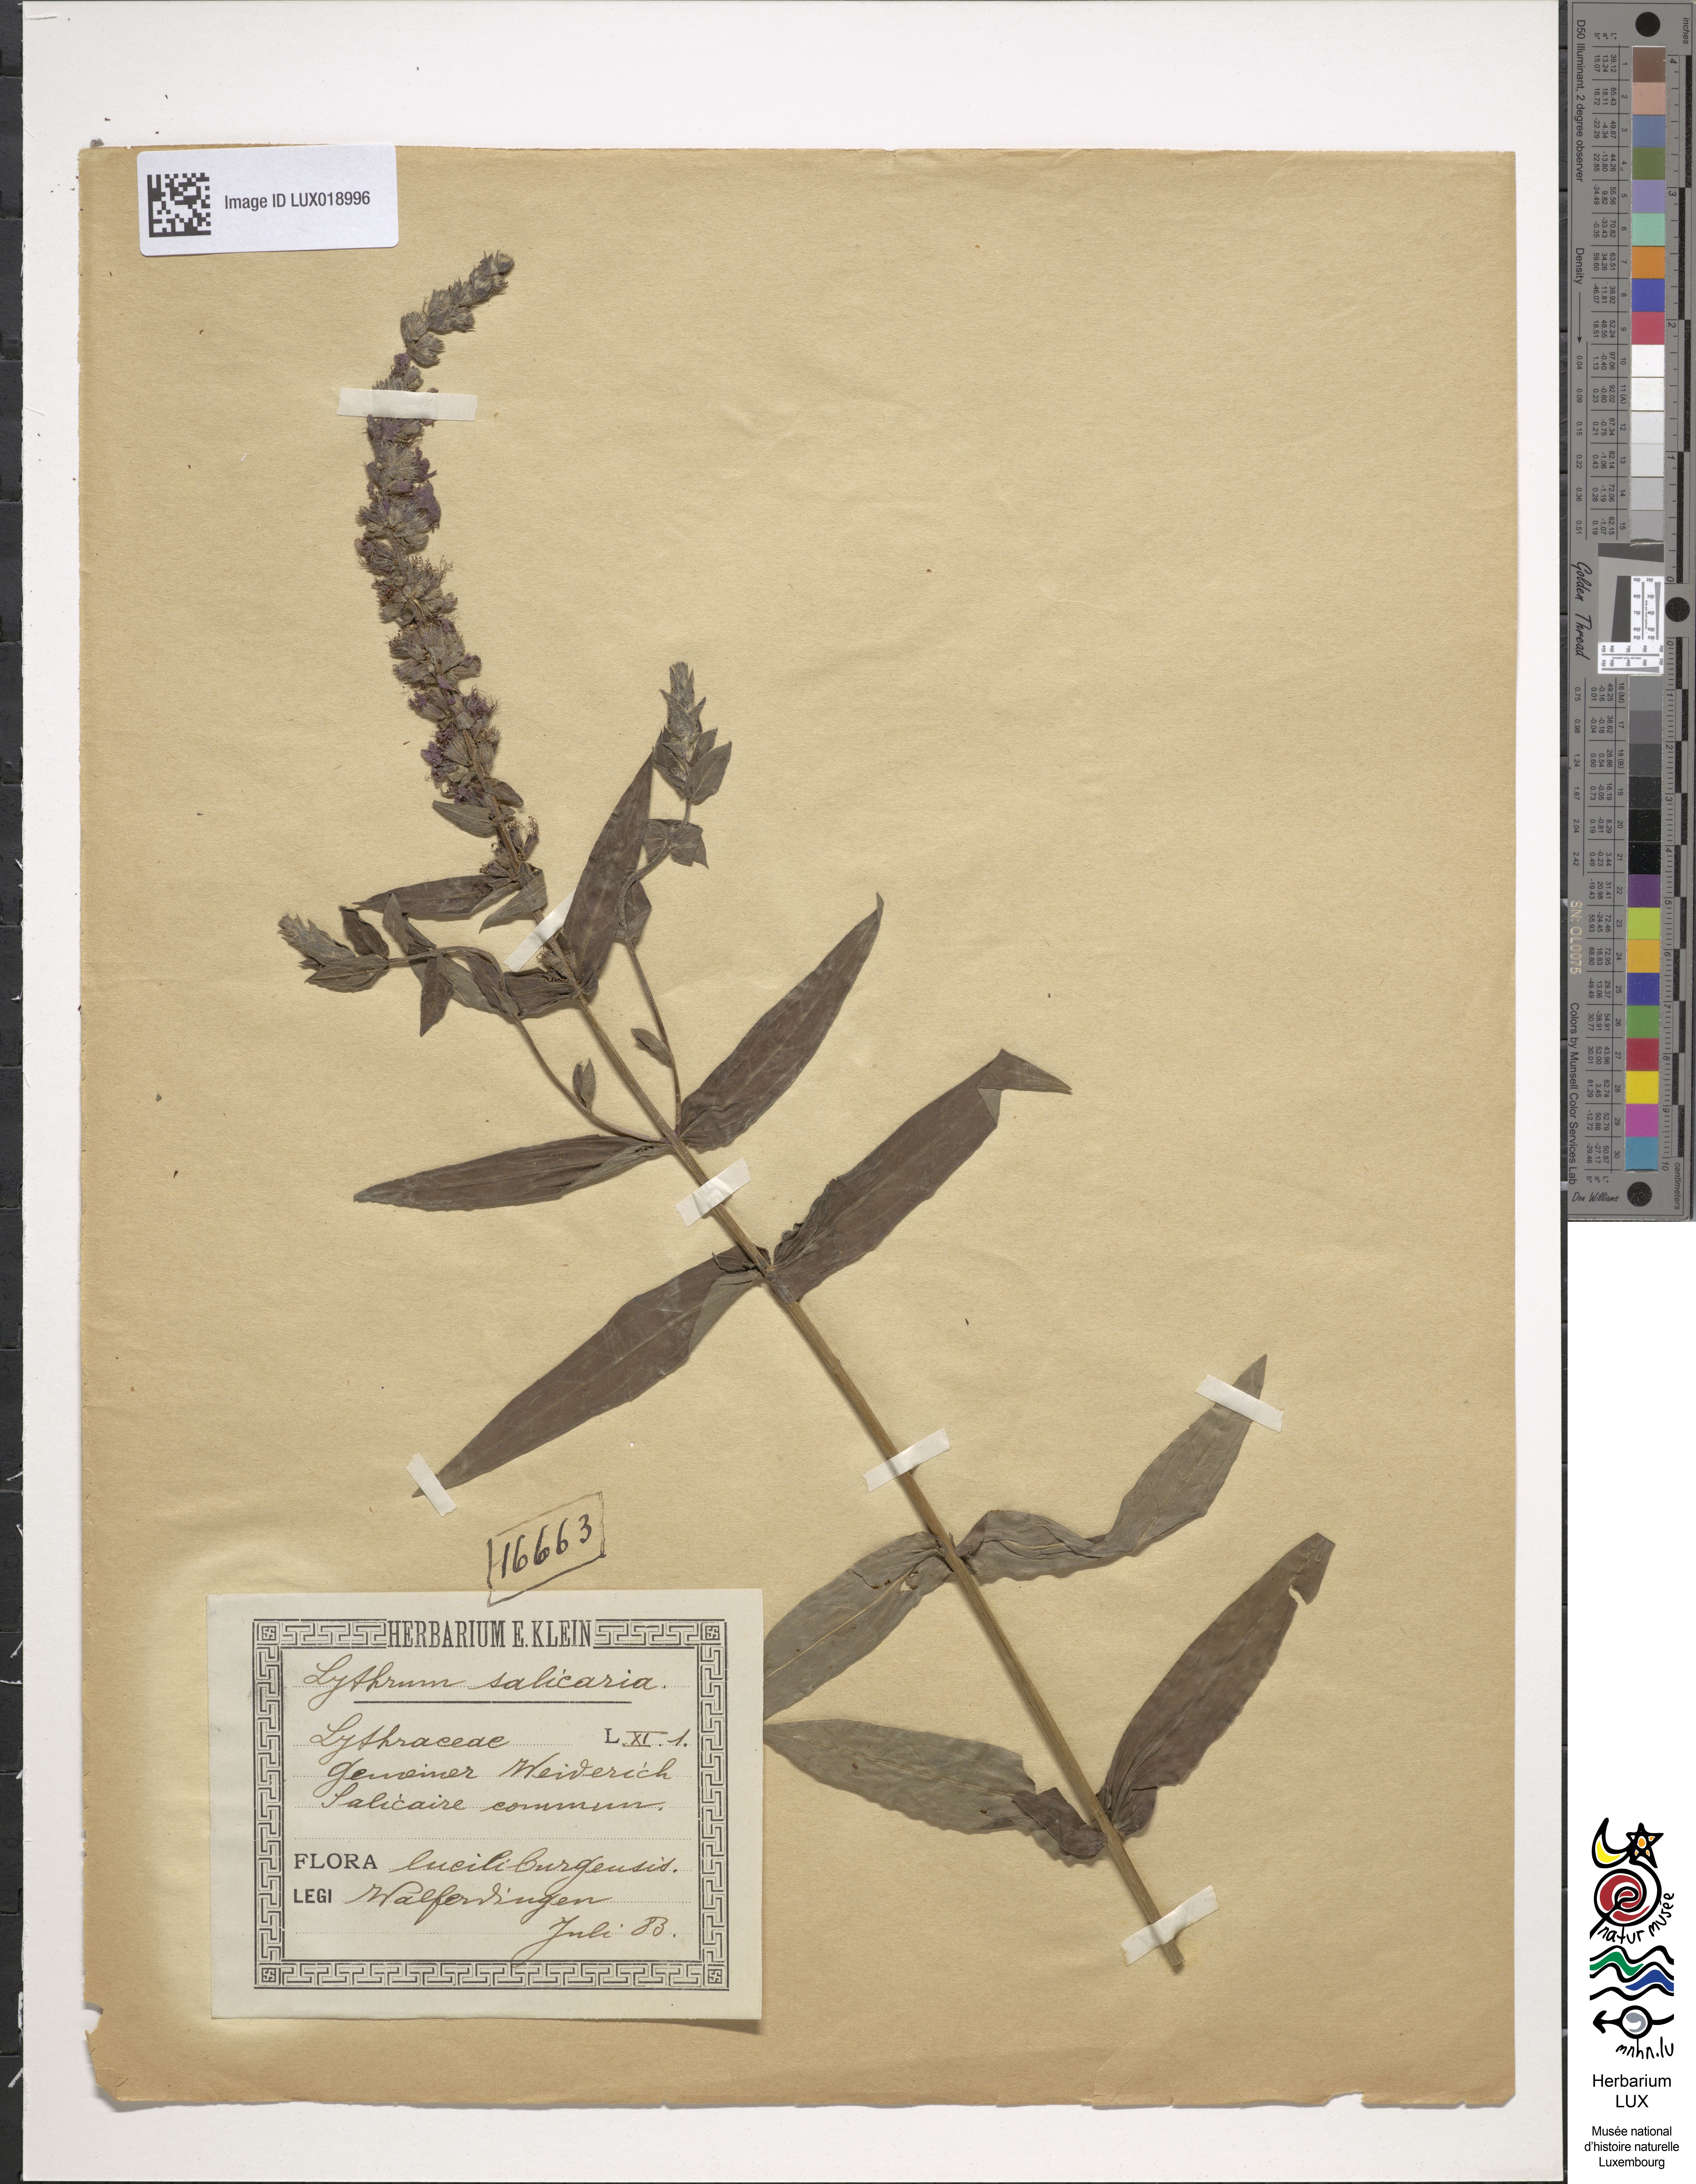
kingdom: Plantae
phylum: Tracheophyta
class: Magnoliopsida
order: Myrtales
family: Lythraceae
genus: Lythrum
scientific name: Lythrum salicaria
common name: Purple loosestrife
